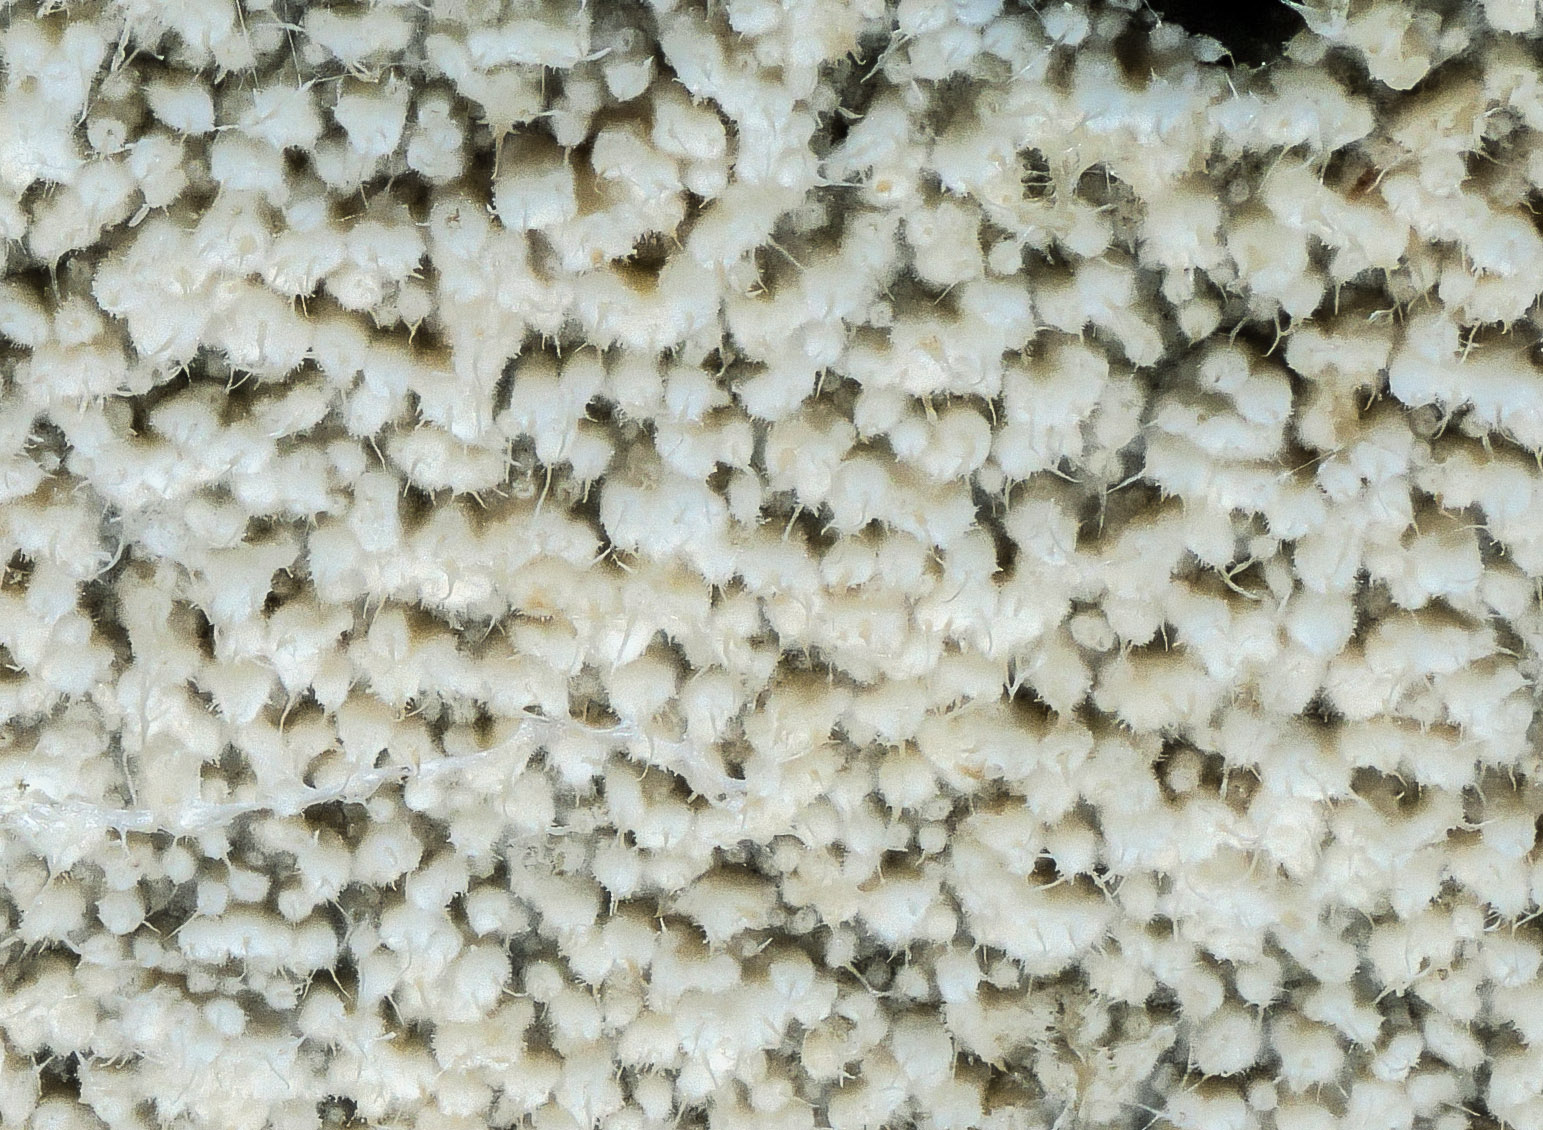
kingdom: Fungi
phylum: Basidiomycota
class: Agaricomycetes
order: Hymenochaetales
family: Hyphodontiaceae
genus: Hyphodontia
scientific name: Hyphodontia abieticola
